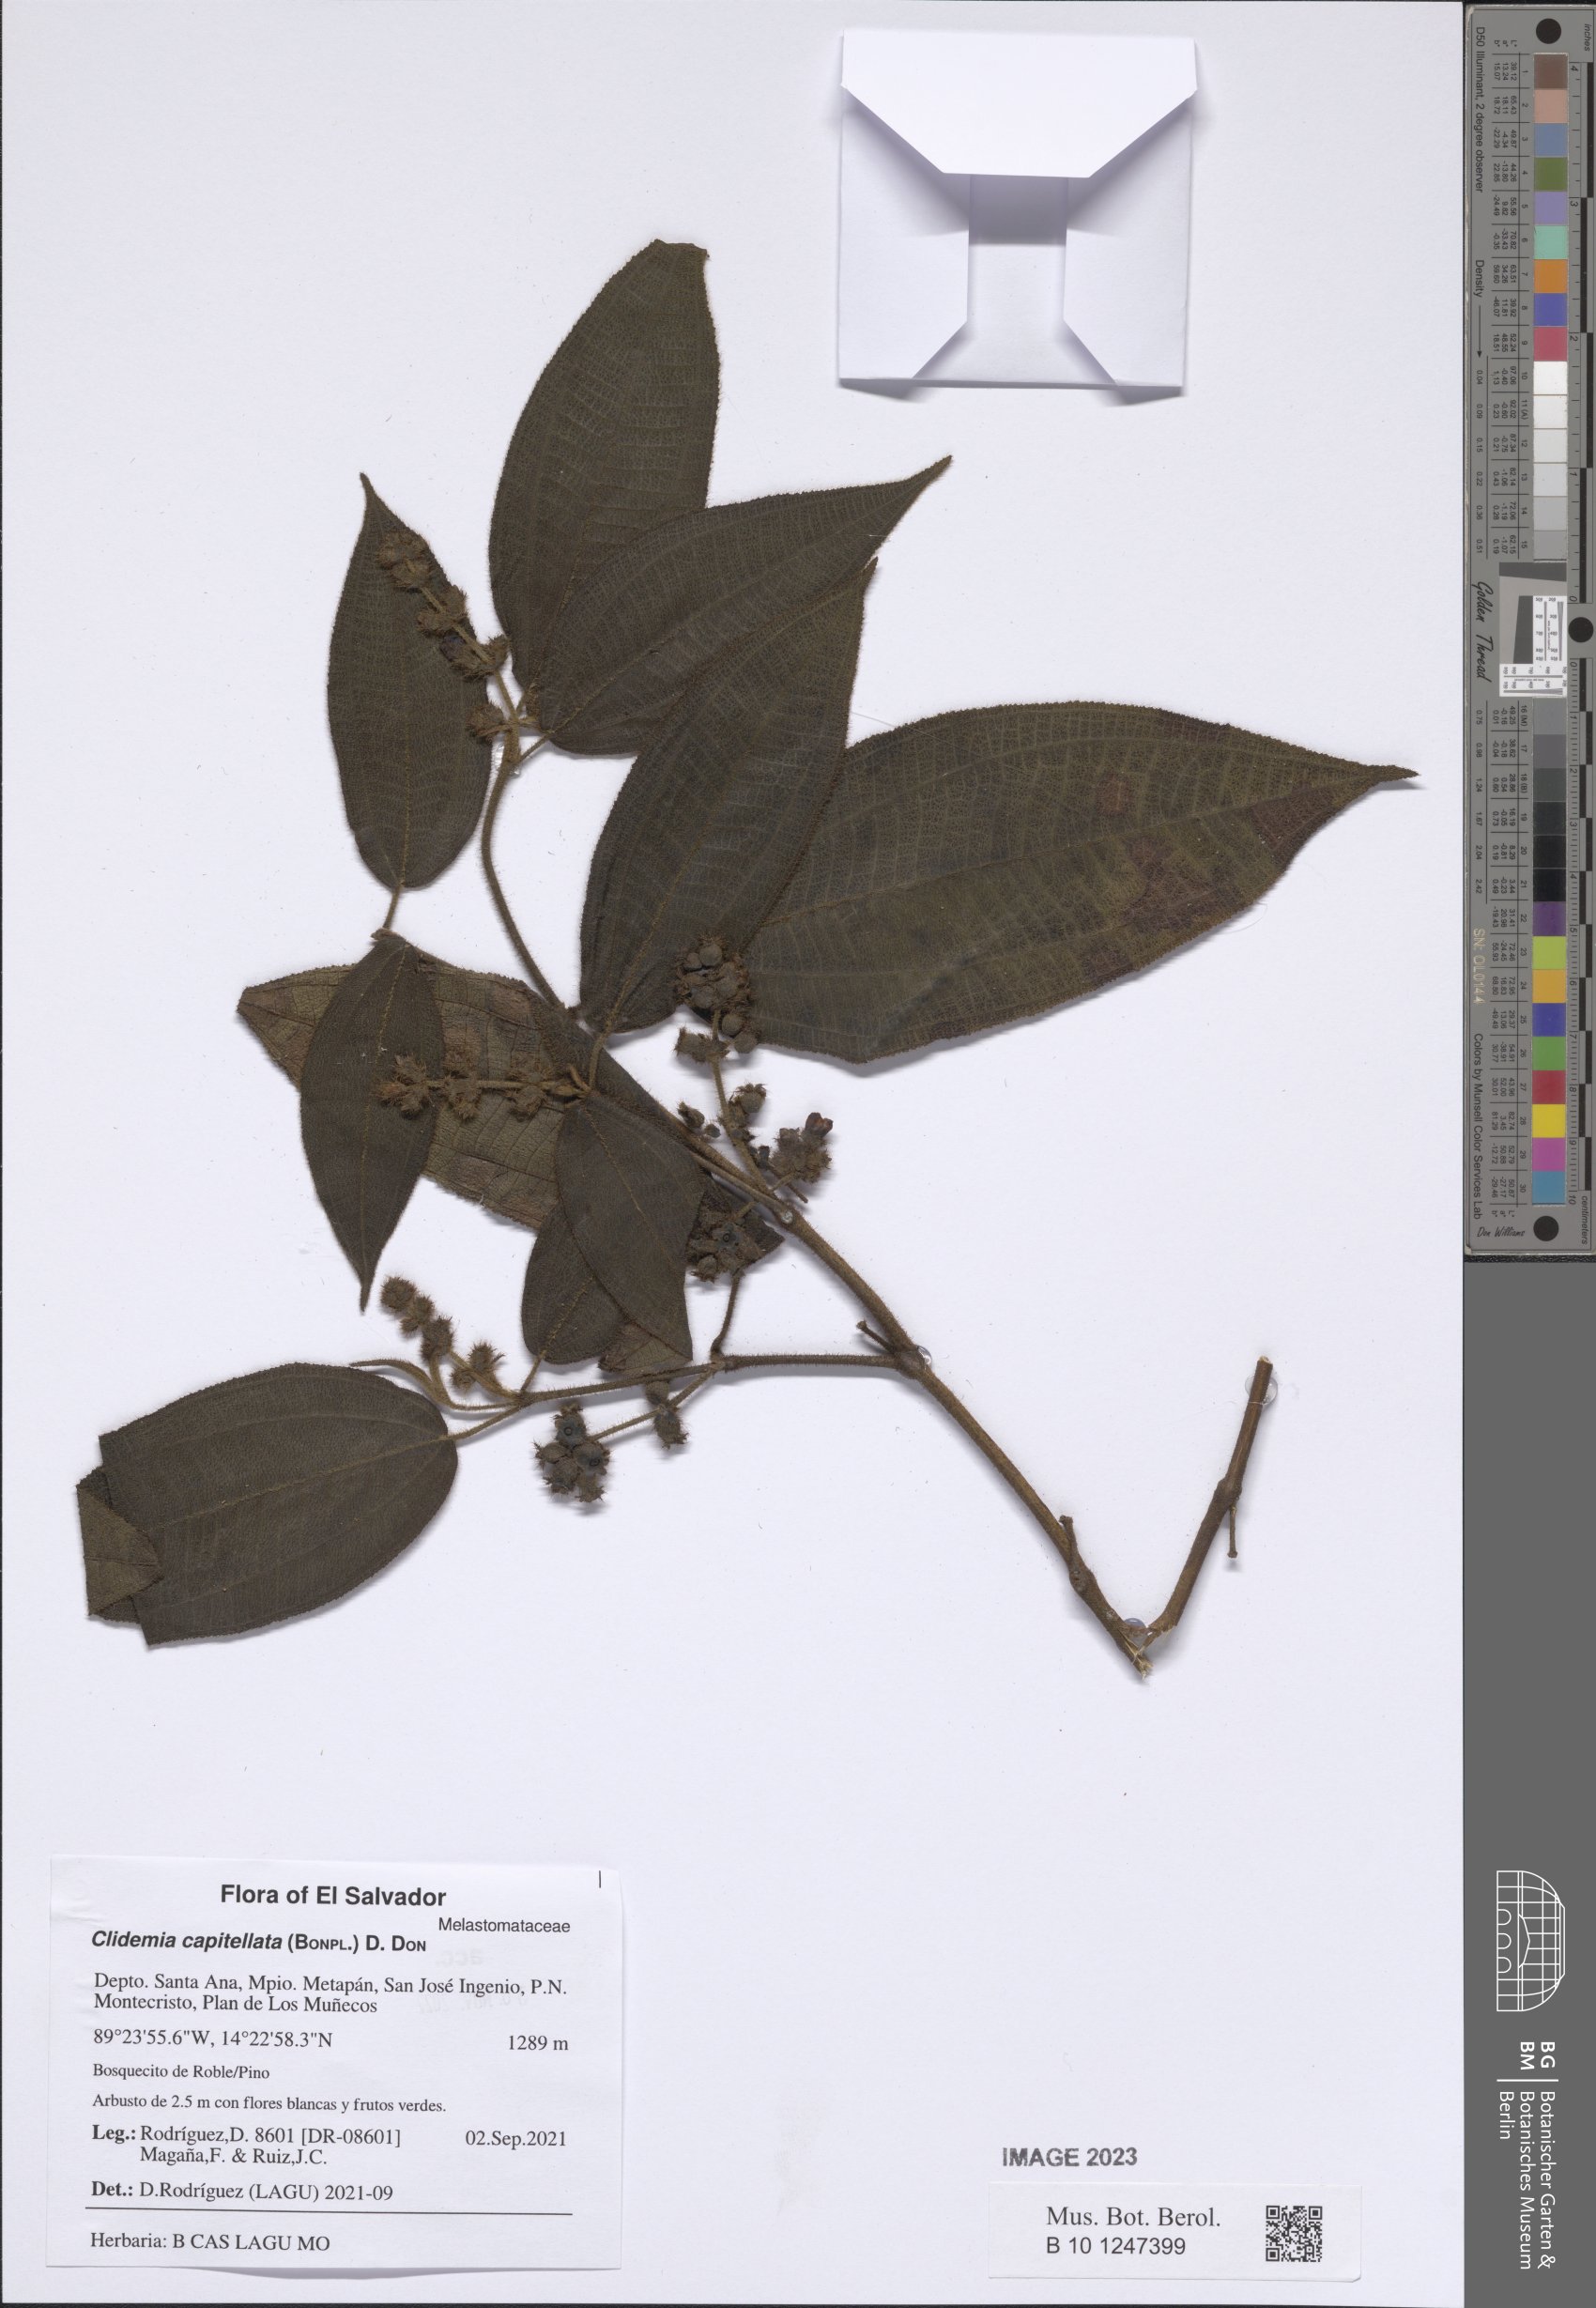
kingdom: Plantae
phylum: Tracheophyta
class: Magnoliopsida
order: Myrtales
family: Melastomataceae
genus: Miconia
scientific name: Miconia dependens
